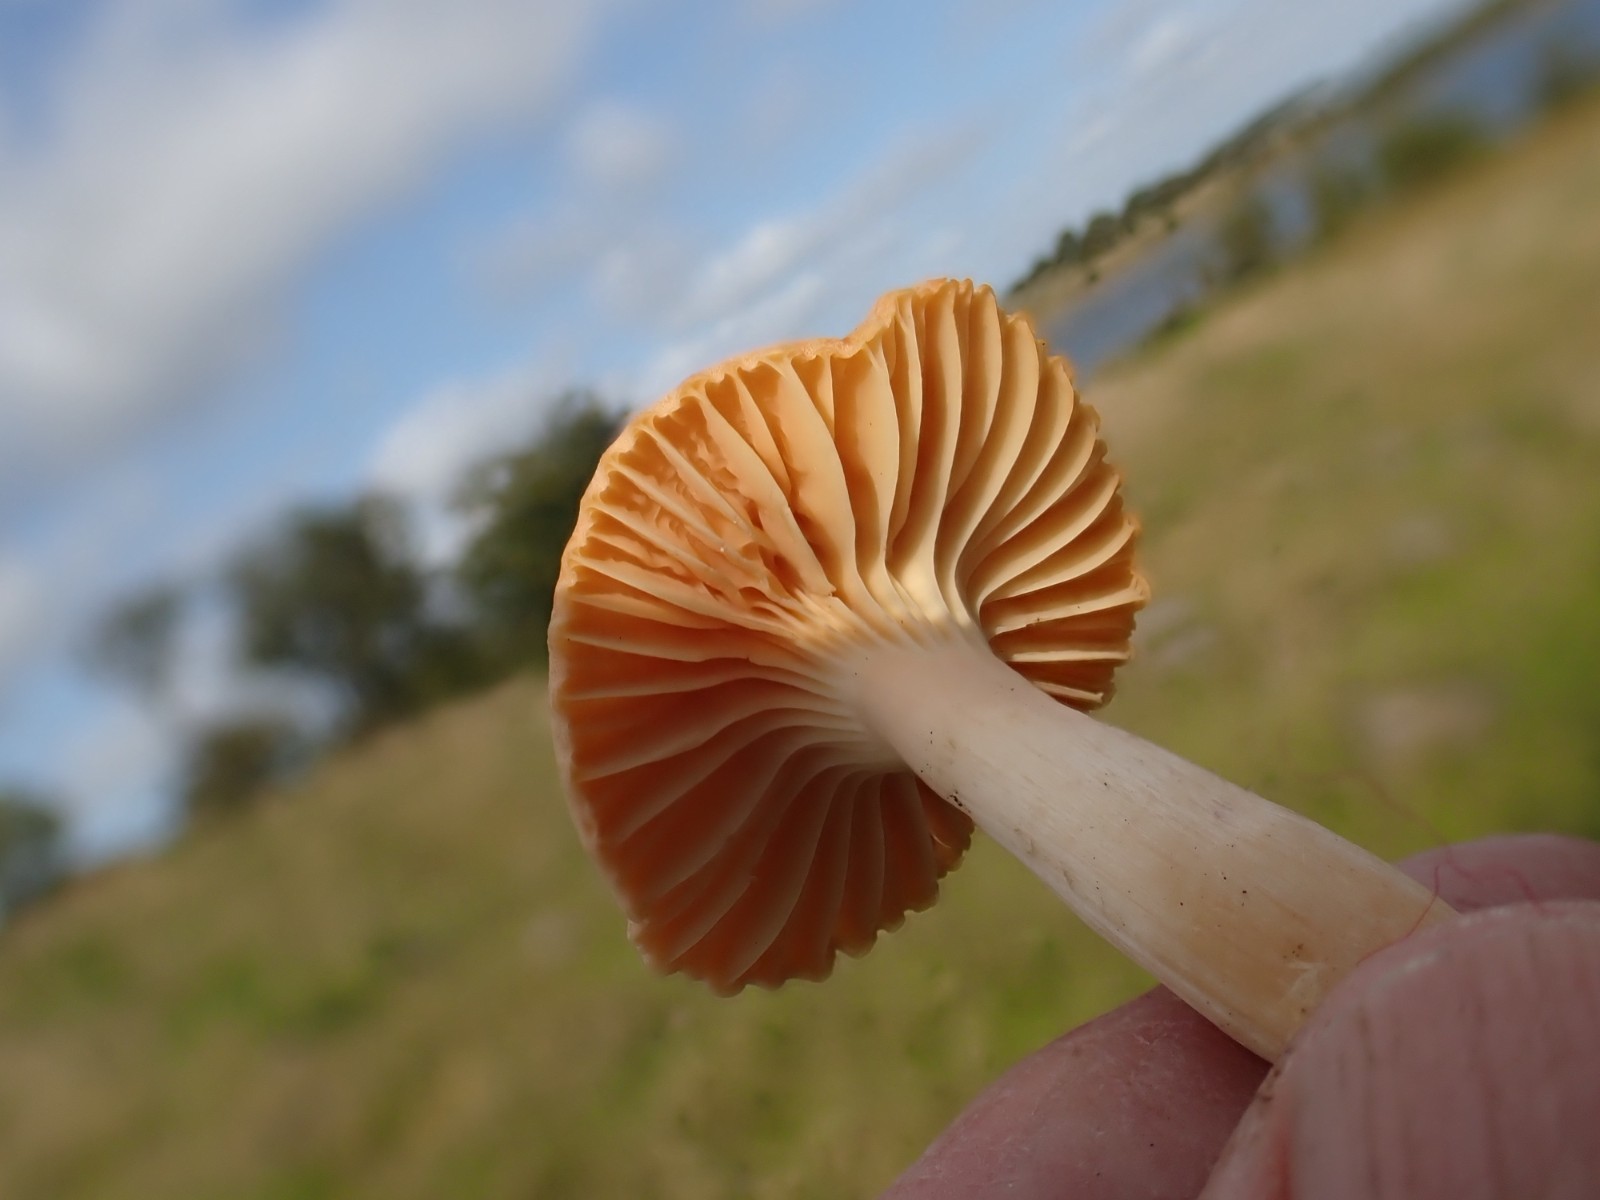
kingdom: Fungi
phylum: Basidiomycota
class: Agaricomycetes
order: Agaricales
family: Hygrophoraceae
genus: Cuphophyllus
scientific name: Cuphophyllus pratensis
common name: eng-vokshat
